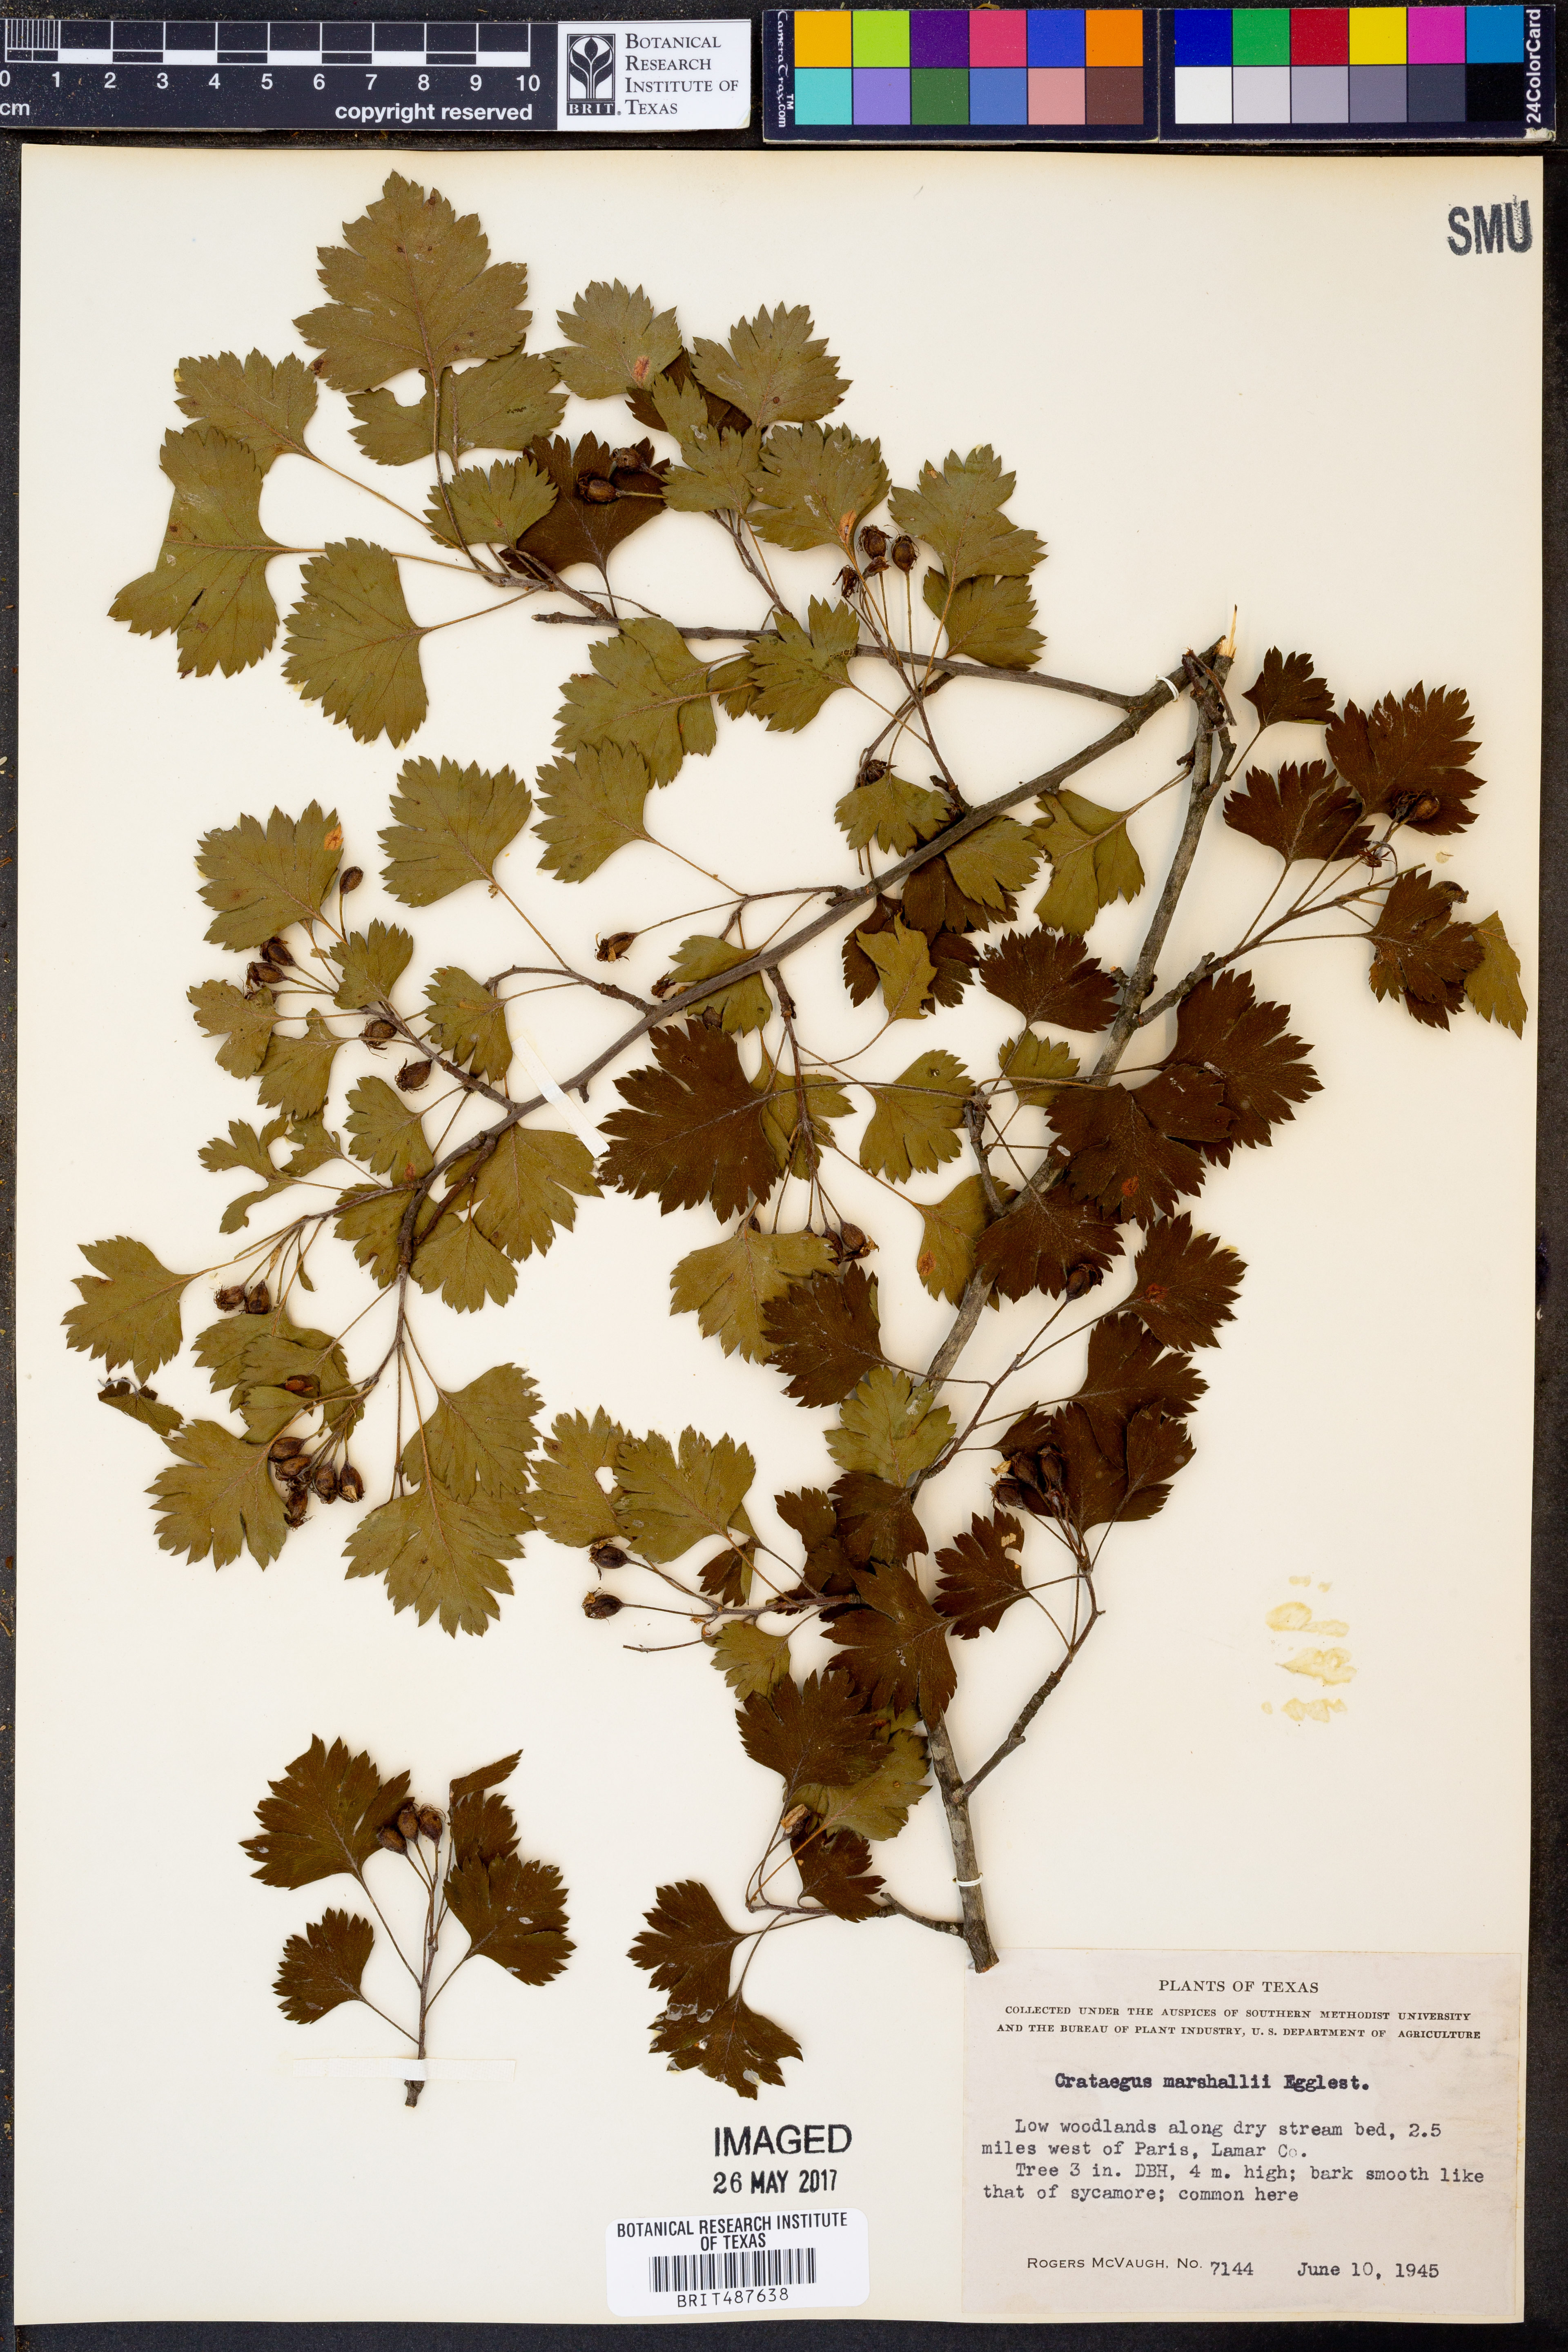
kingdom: Plantae
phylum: Tracheophyta
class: Magnoliopsida
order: Rosales
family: Rosaceae
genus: Crataegus
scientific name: Crataegus marshallii
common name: Parsley-hawthorn
